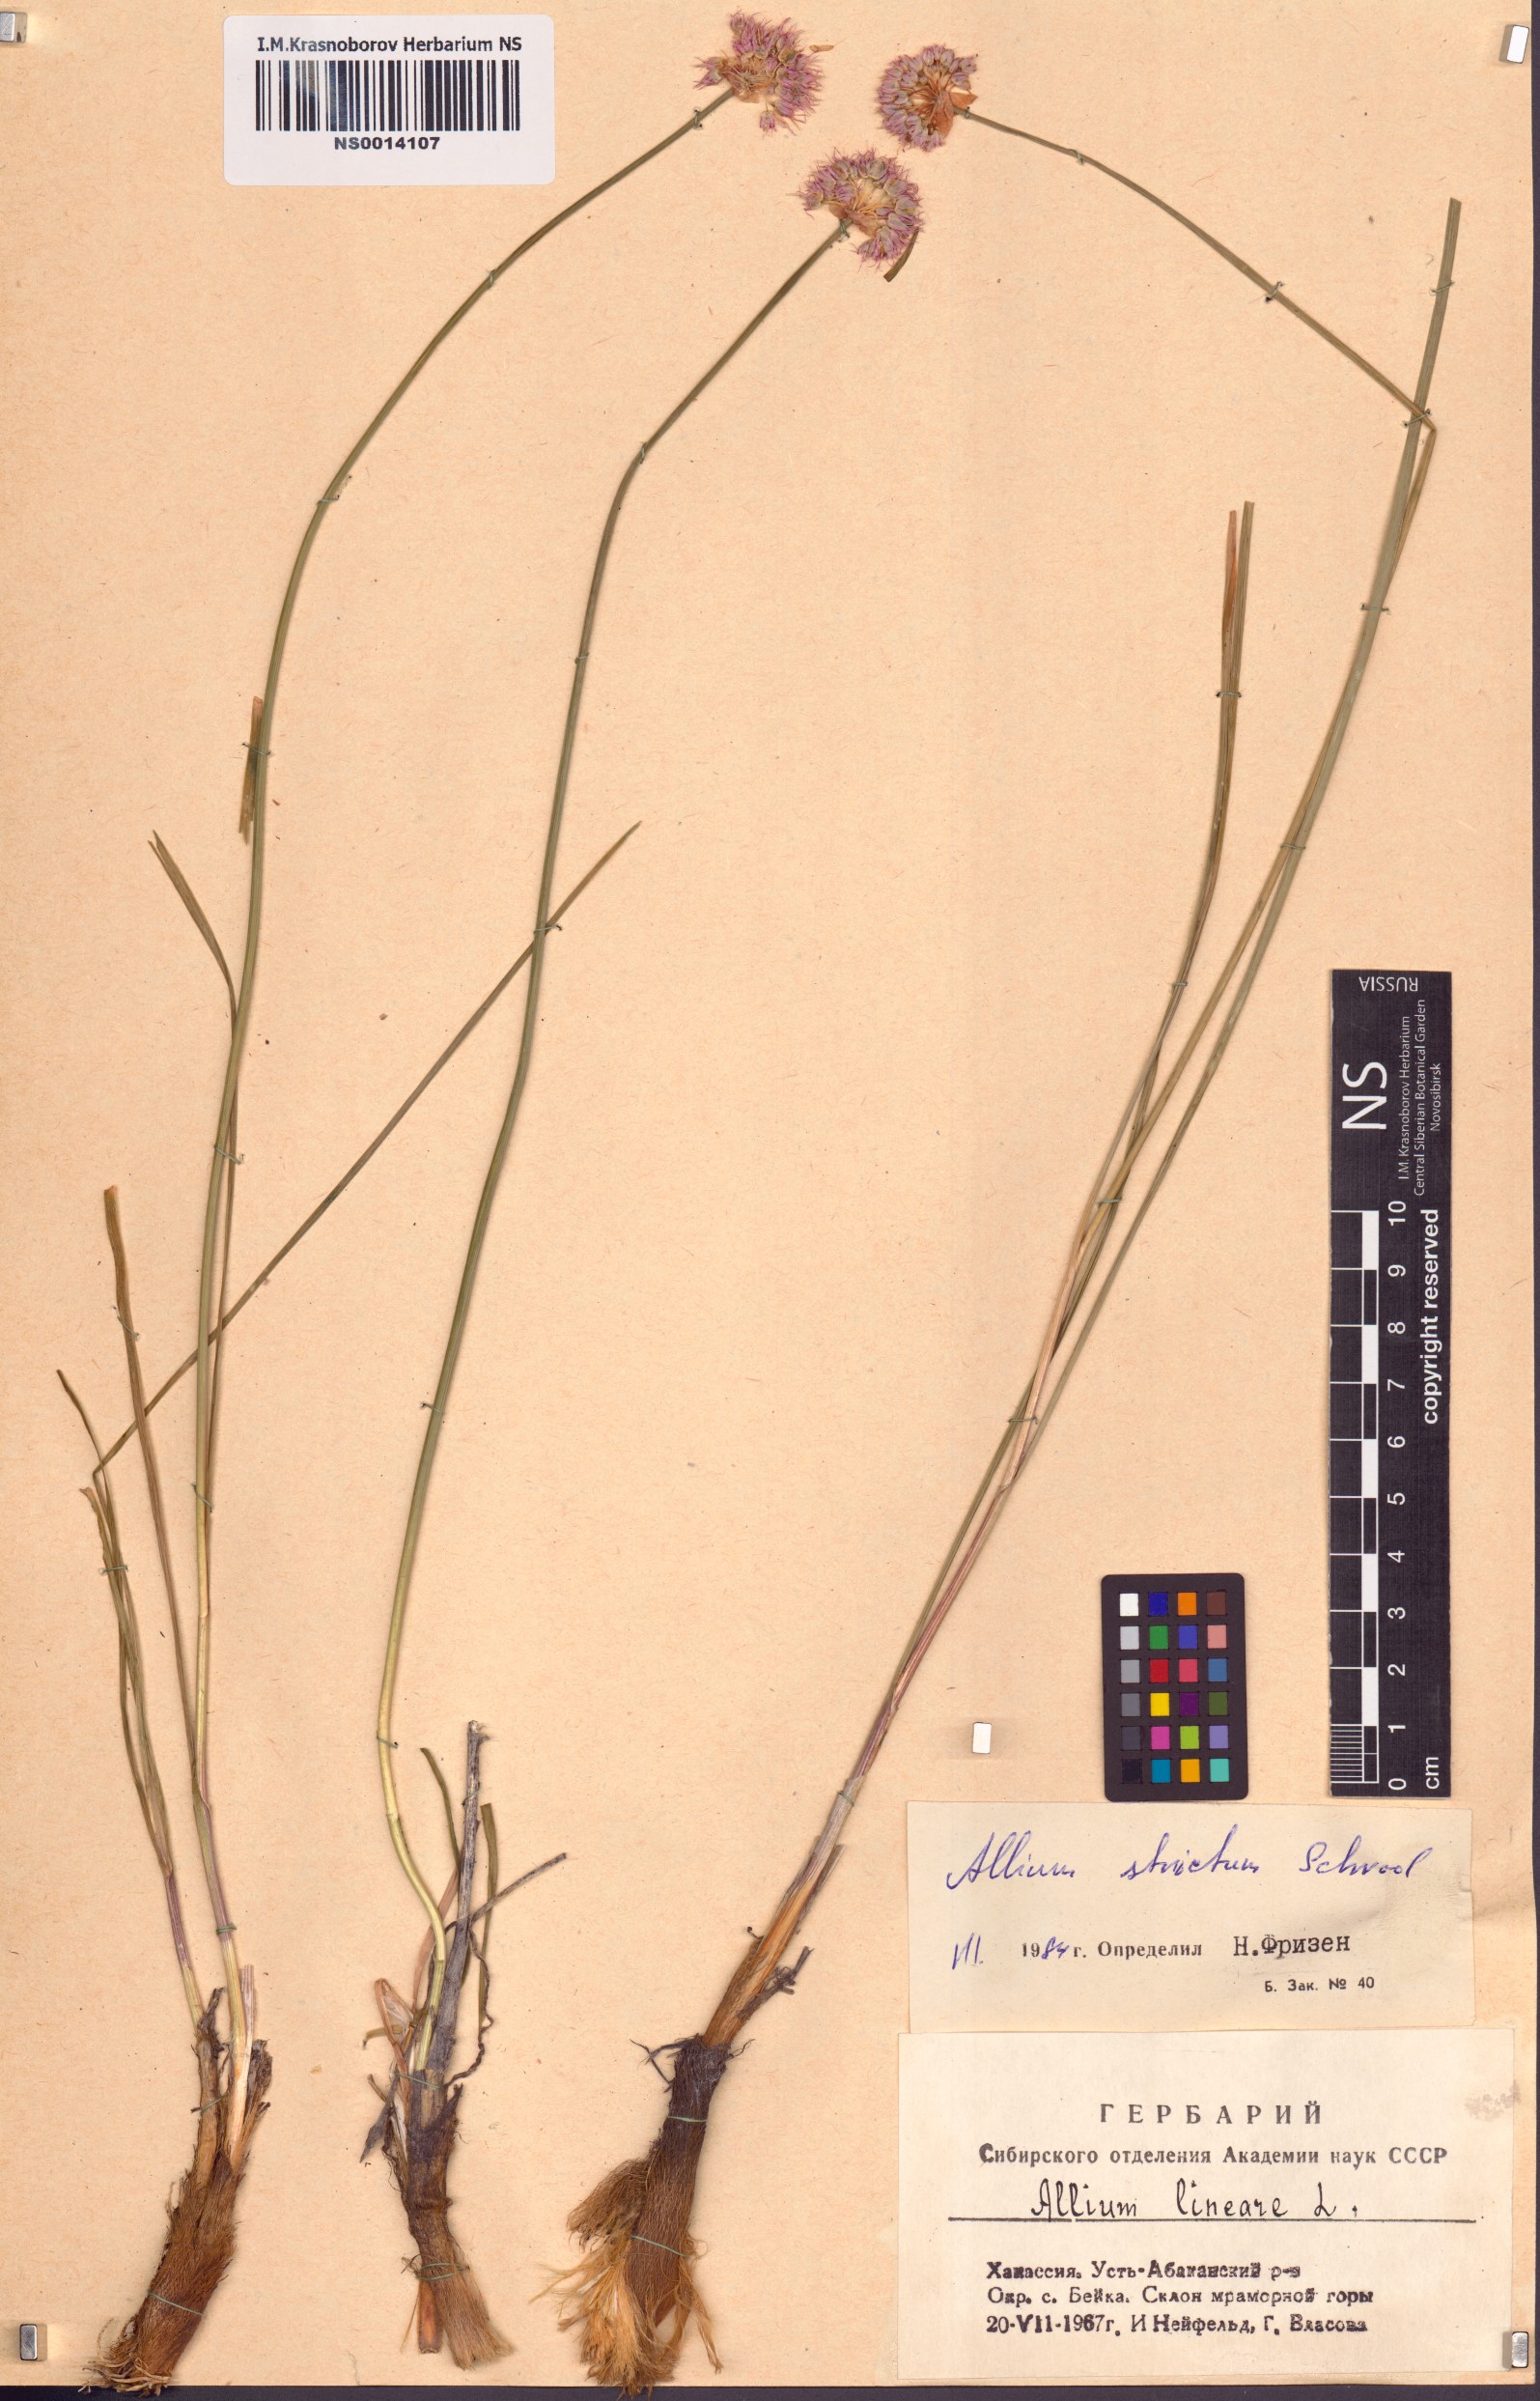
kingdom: Plantae
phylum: Tracheophyta
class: Liliopsida
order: Asparagales
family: Amaryllidaceae
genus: Allium
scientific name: Allium strictum
